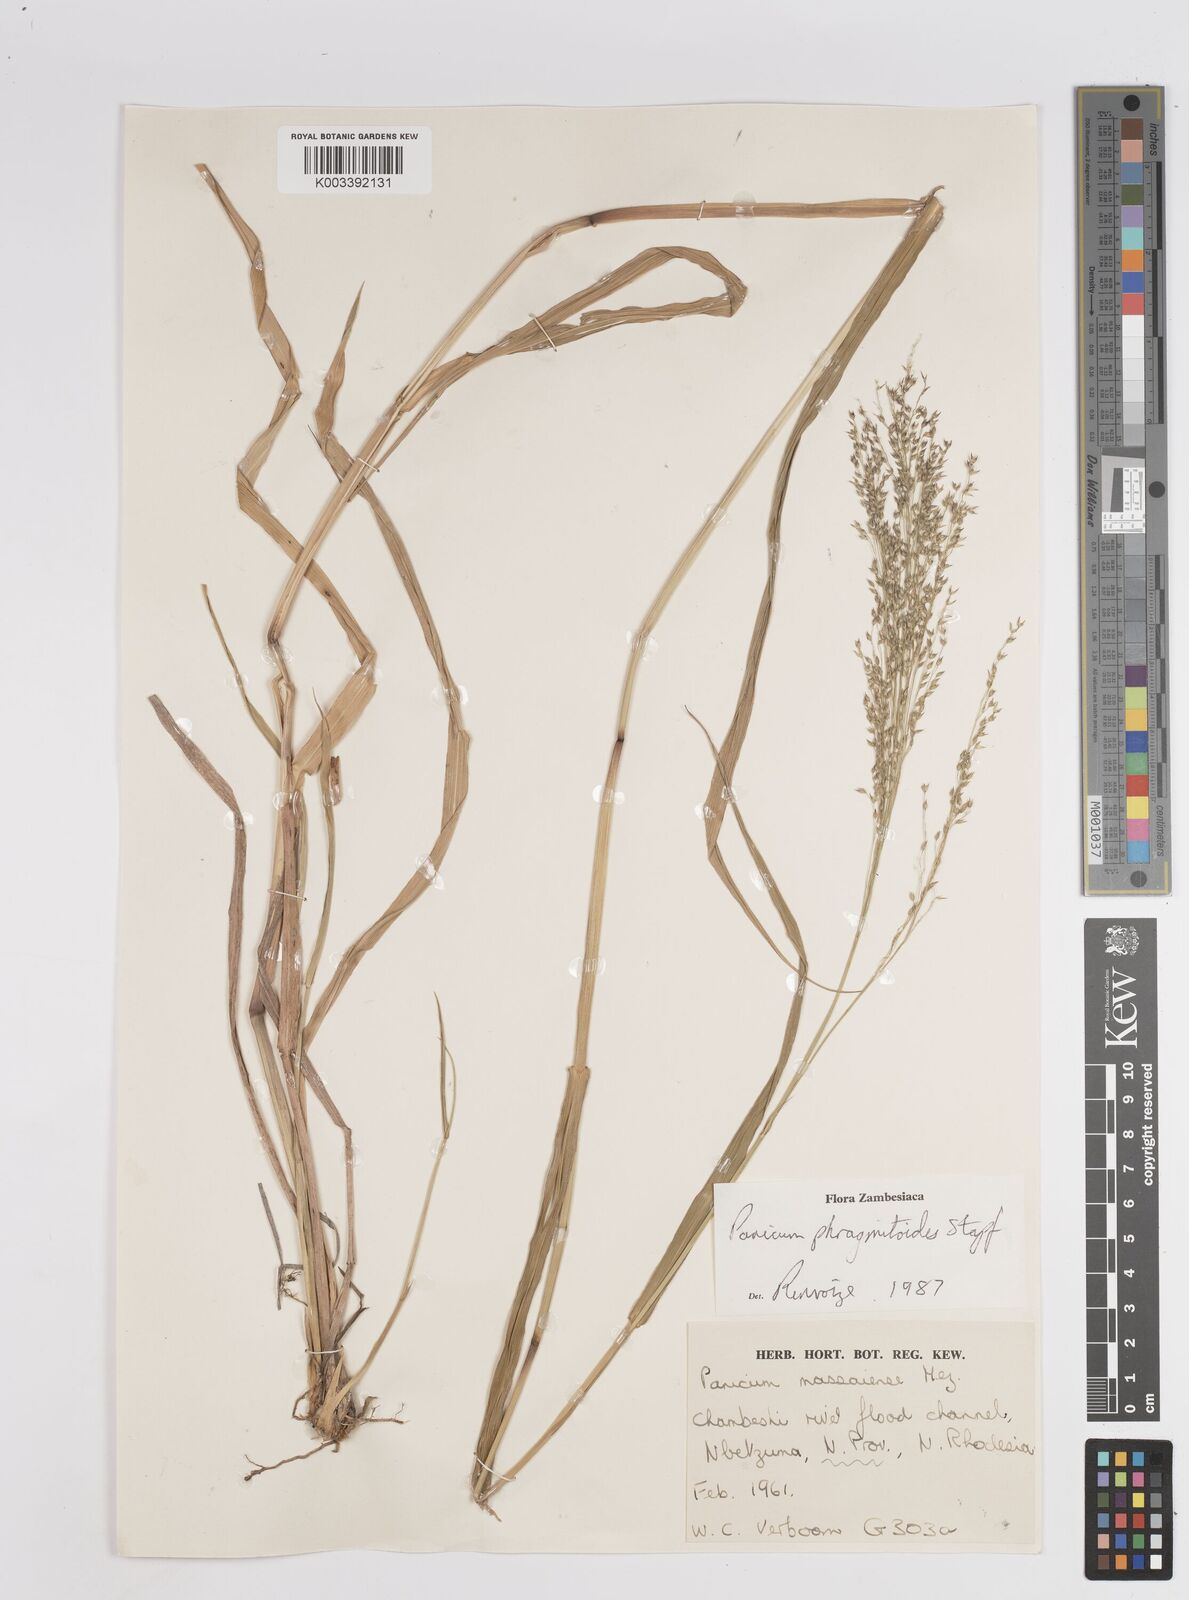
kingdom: Plantae
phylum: Tracheophyta
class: Liliopsida
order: Poales
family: Poaceae
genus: Panicum
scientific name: Panicum phragmitoides
